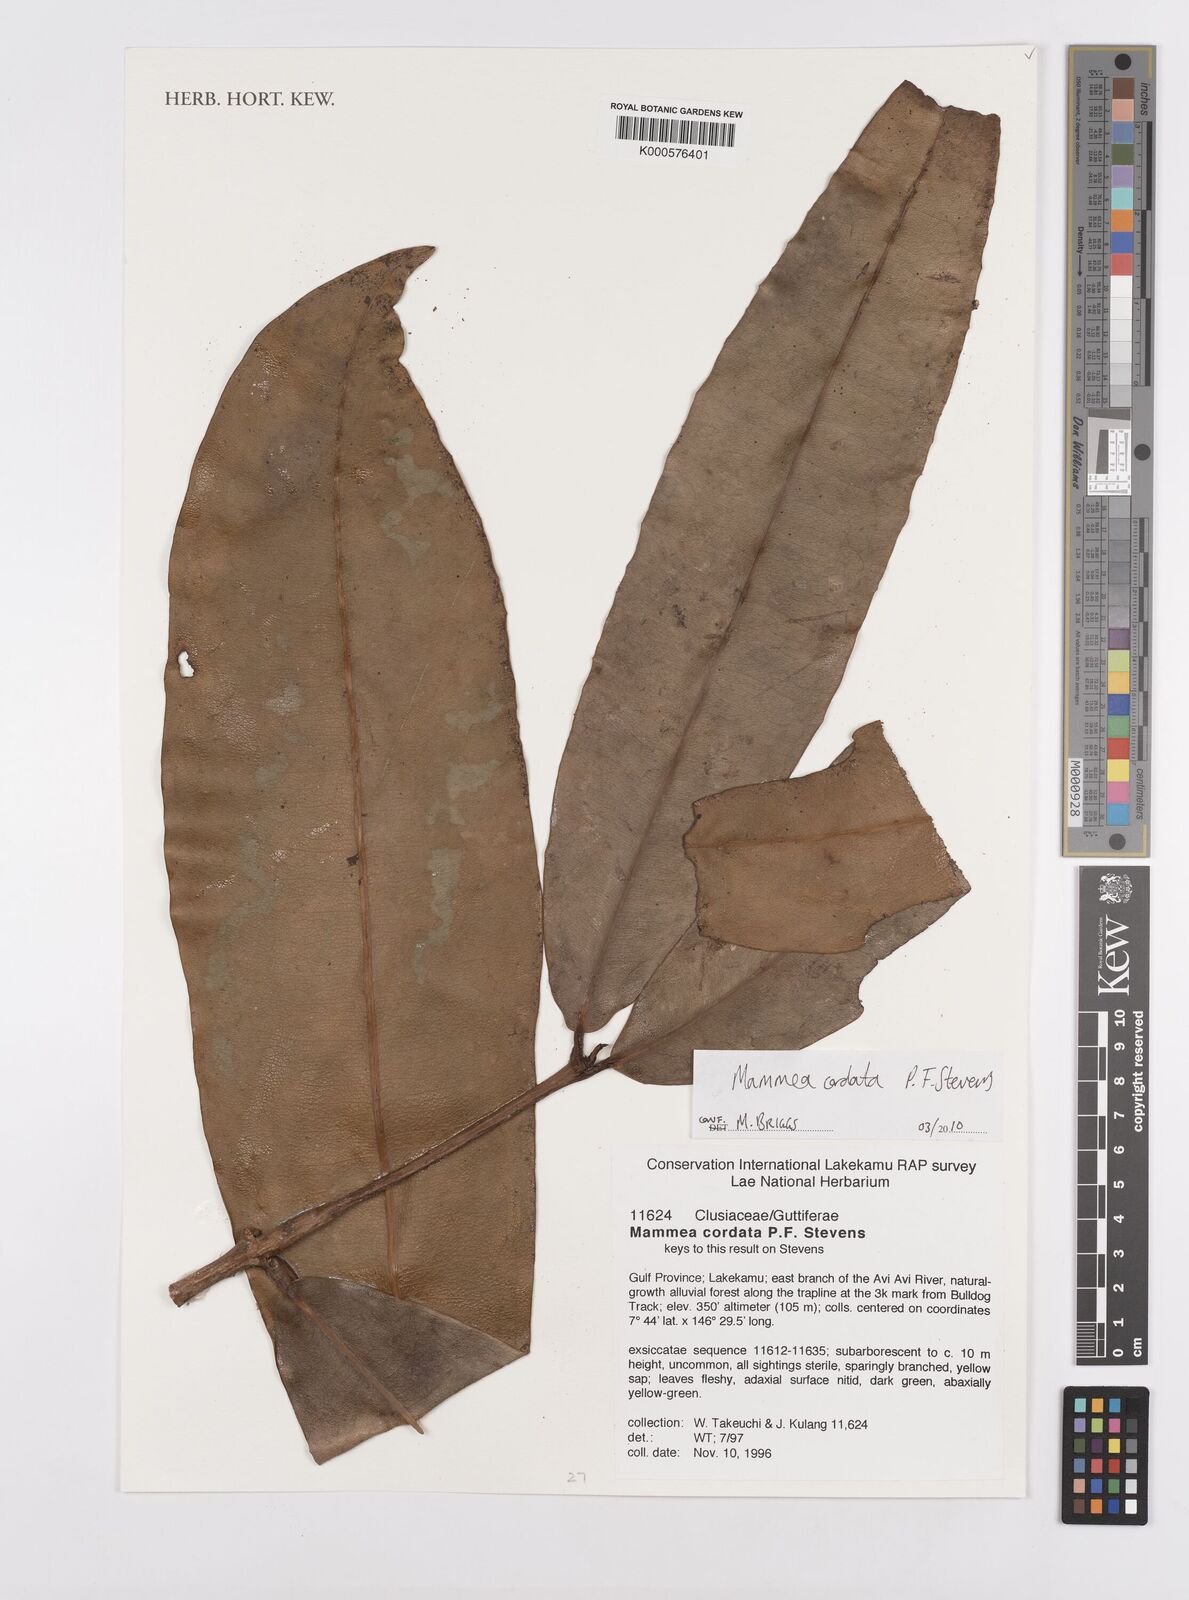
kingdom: Plantae
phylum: Tracheophyta
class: Magnoliopsida
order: Malpighiales
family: Calophyllaceae
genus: Mammea
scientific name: Mammea cordata
